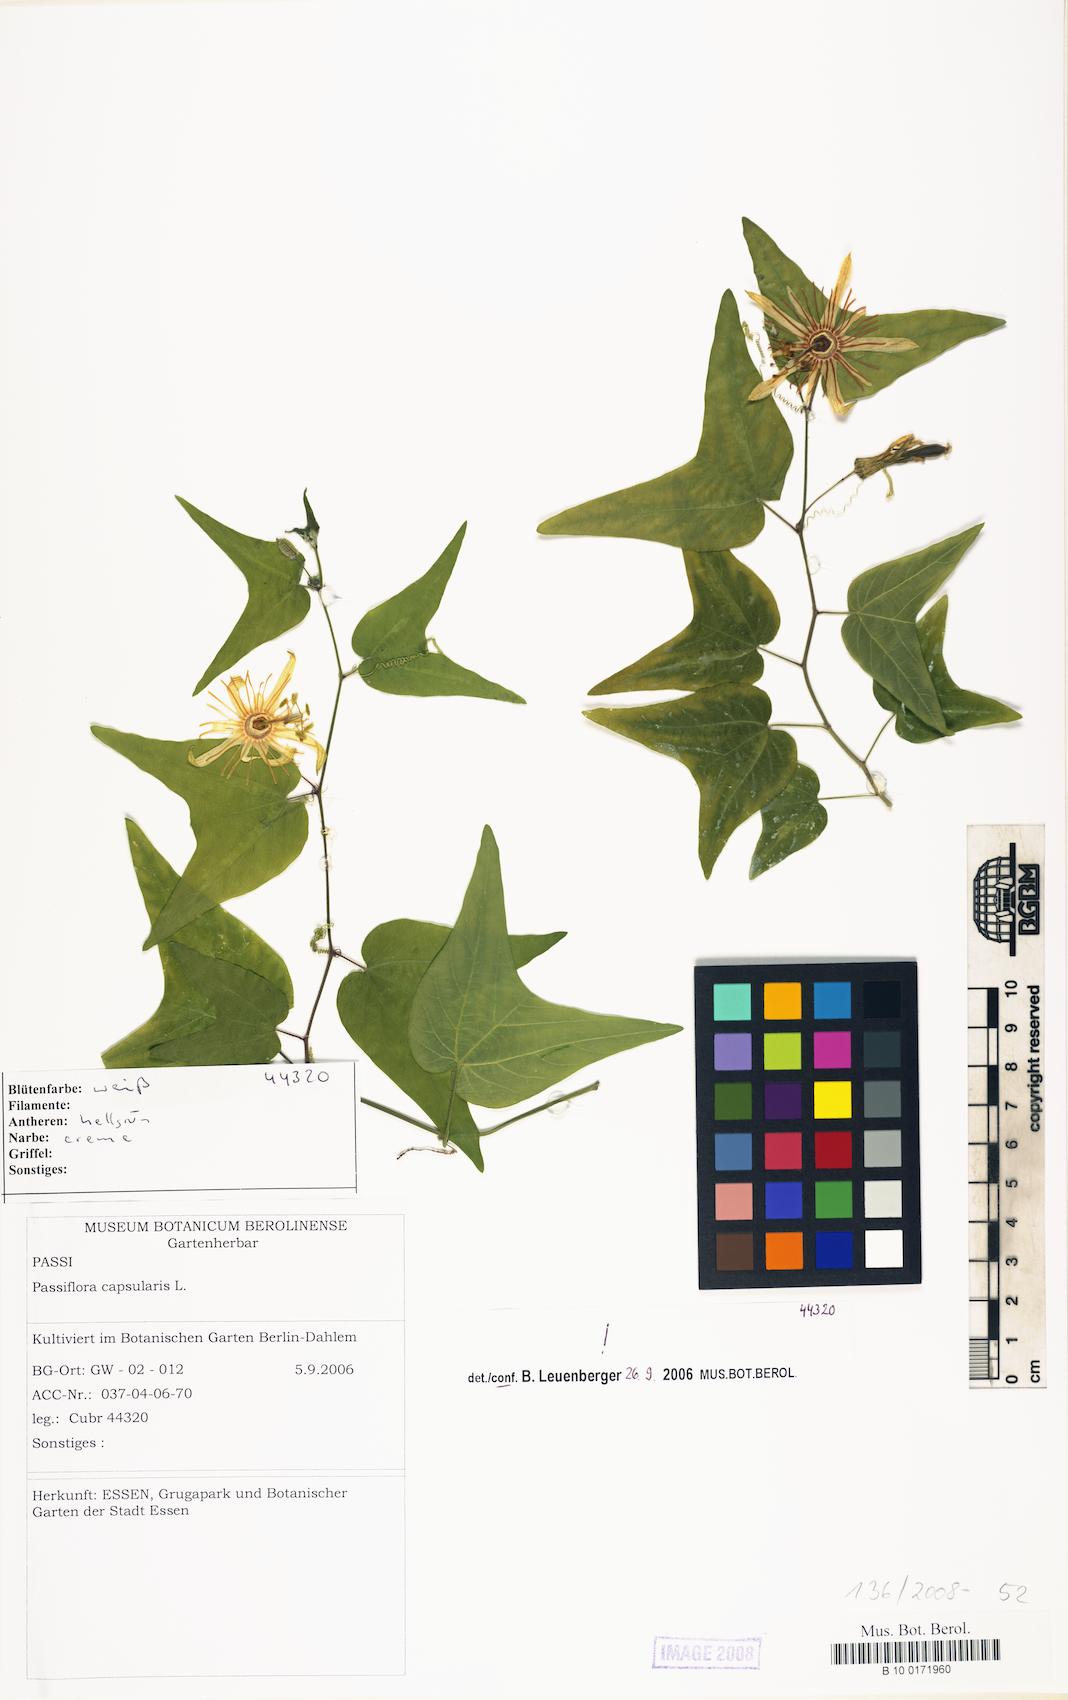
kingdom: Plantae
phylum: Tracheophyta
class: Magnoliopsida
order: Malpighiales
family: Passifloraceae
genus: Passiflora
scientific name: Passiflora capsularis
